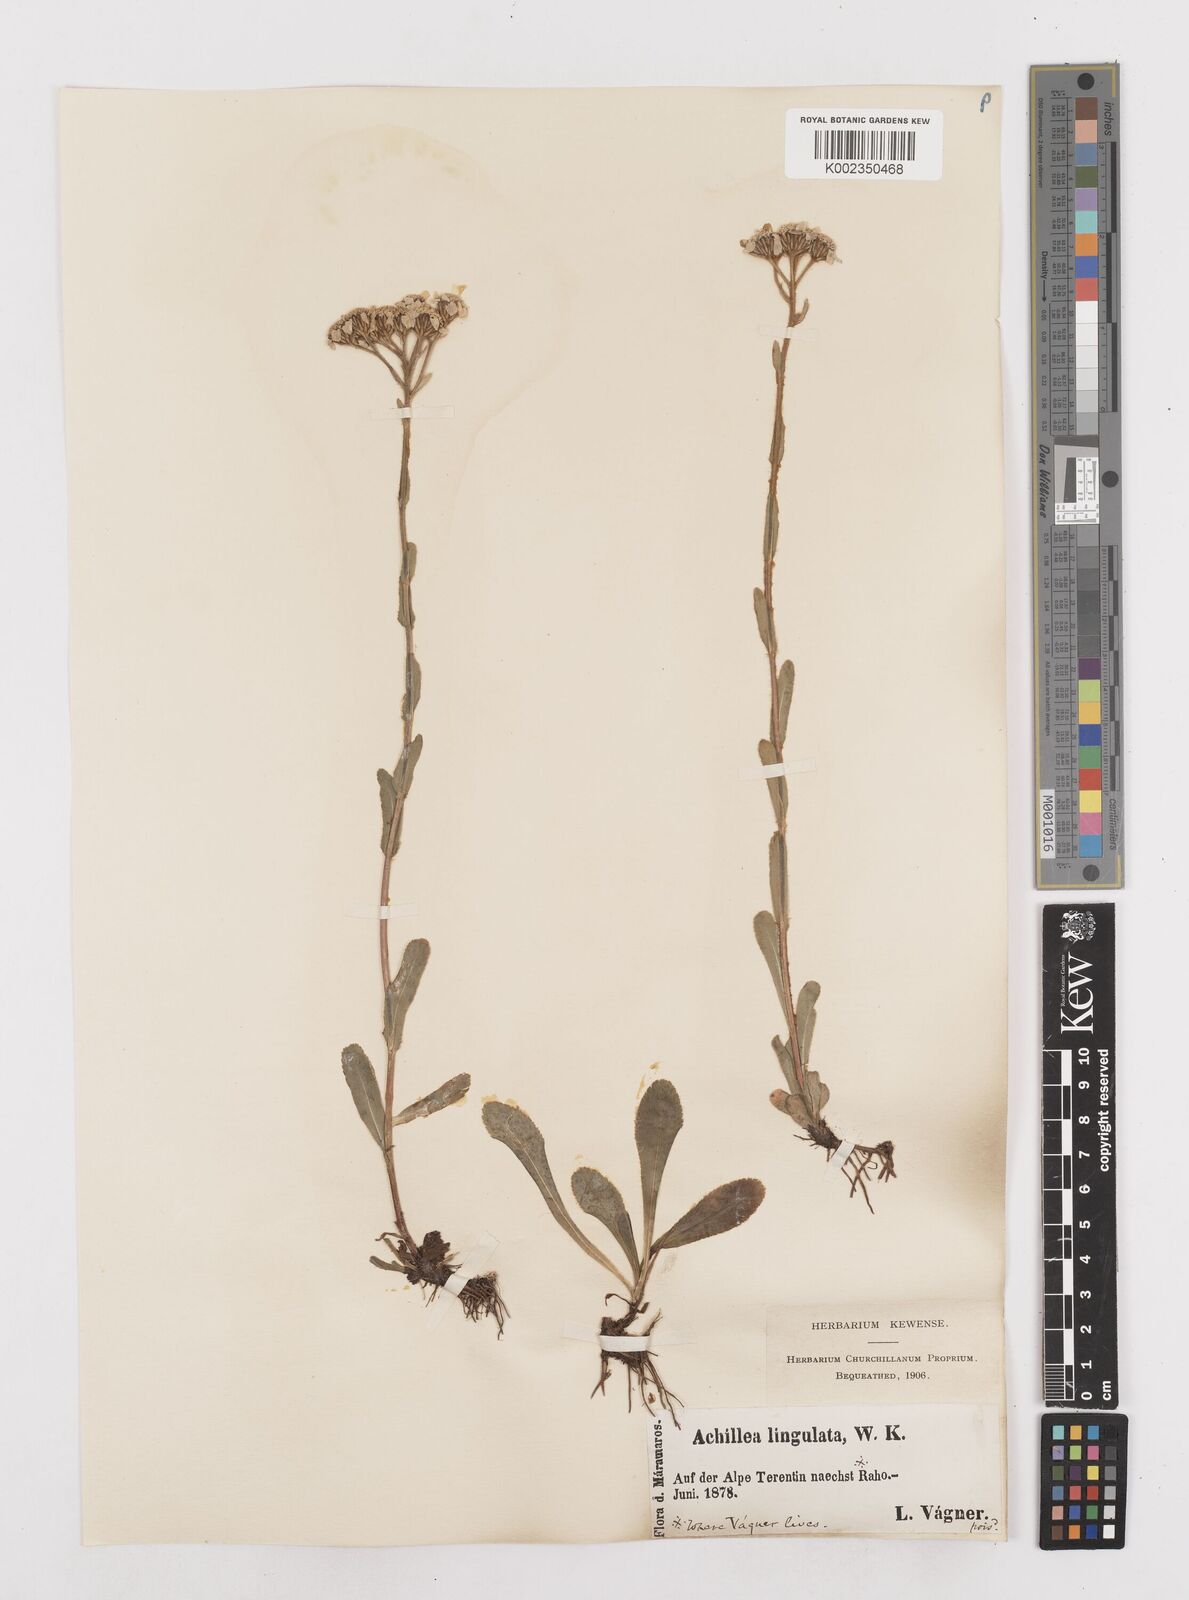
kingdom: Plantae
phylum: Tracheophyta
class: Magnoliopsida
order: Asterales
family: Asteraceae
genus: Achillea
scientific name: Achillea lingulata
